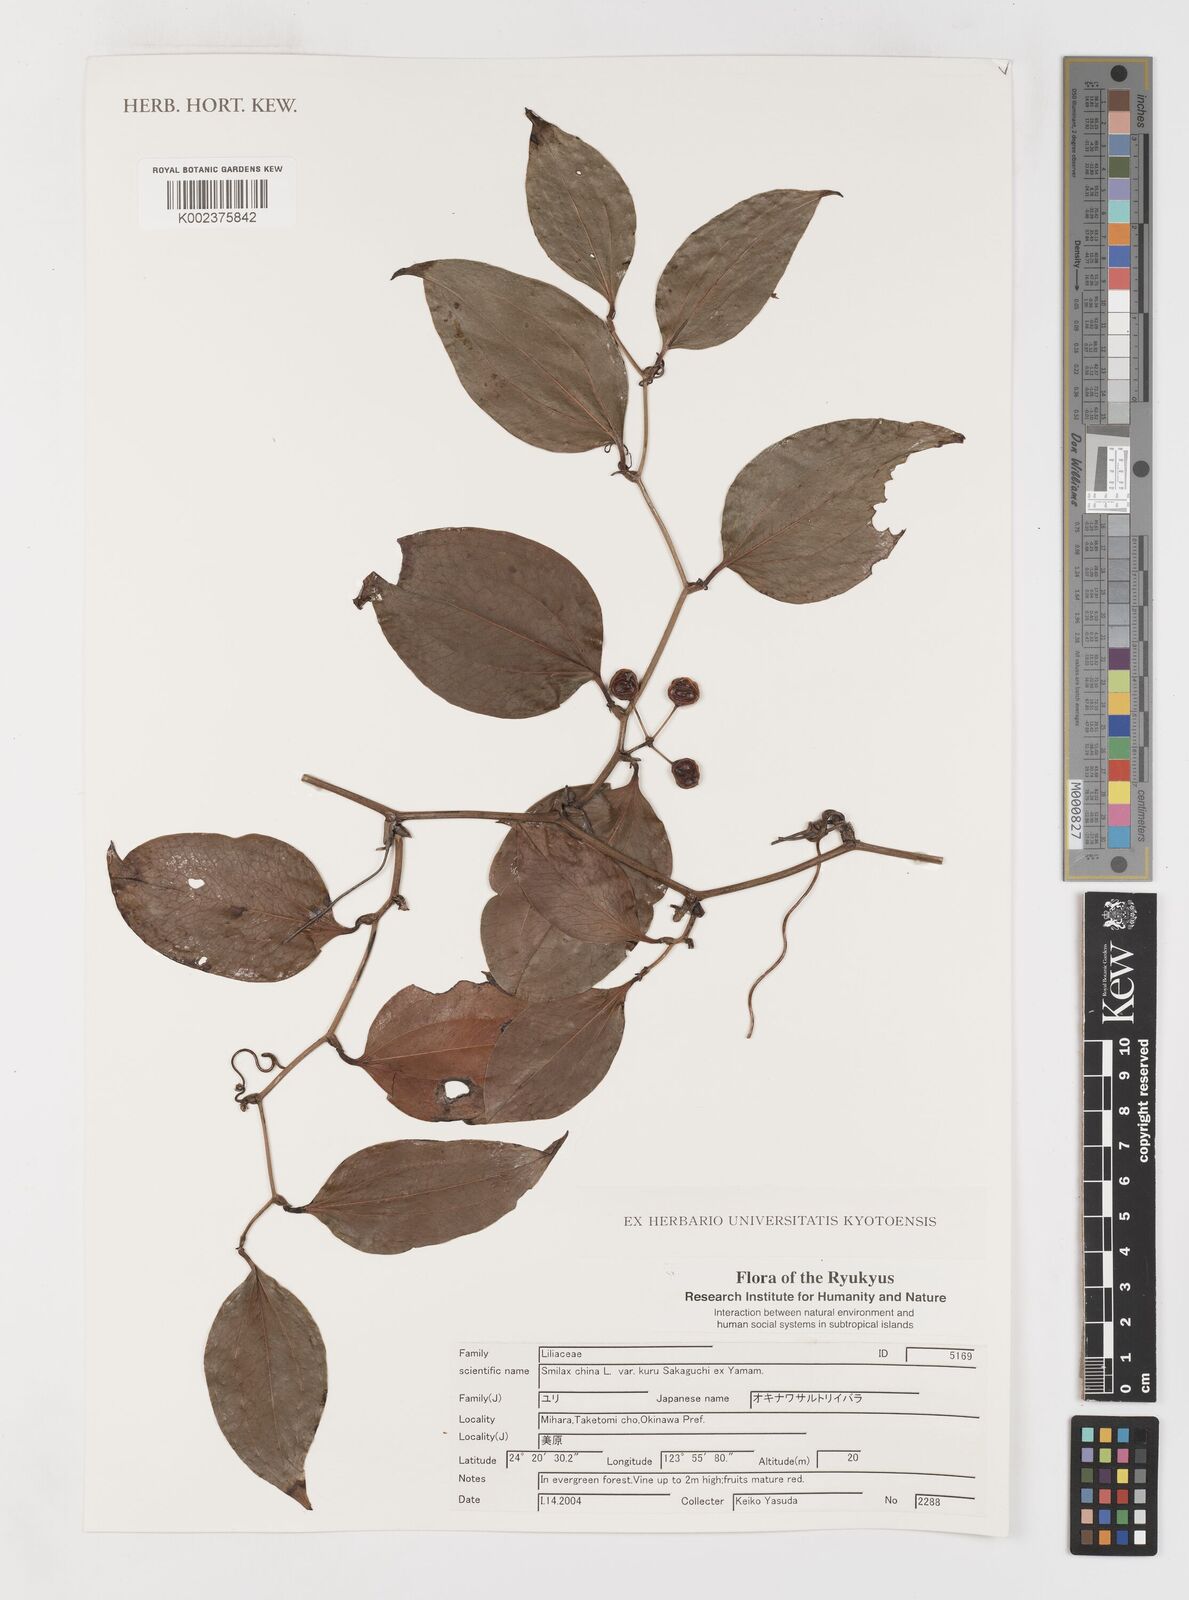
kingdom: Plantae
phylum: Tracheophyta
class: Liliopsida
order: Liliales
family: Smilacaceae
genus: Smilax
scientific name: Smilax china
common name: Chinaroot
